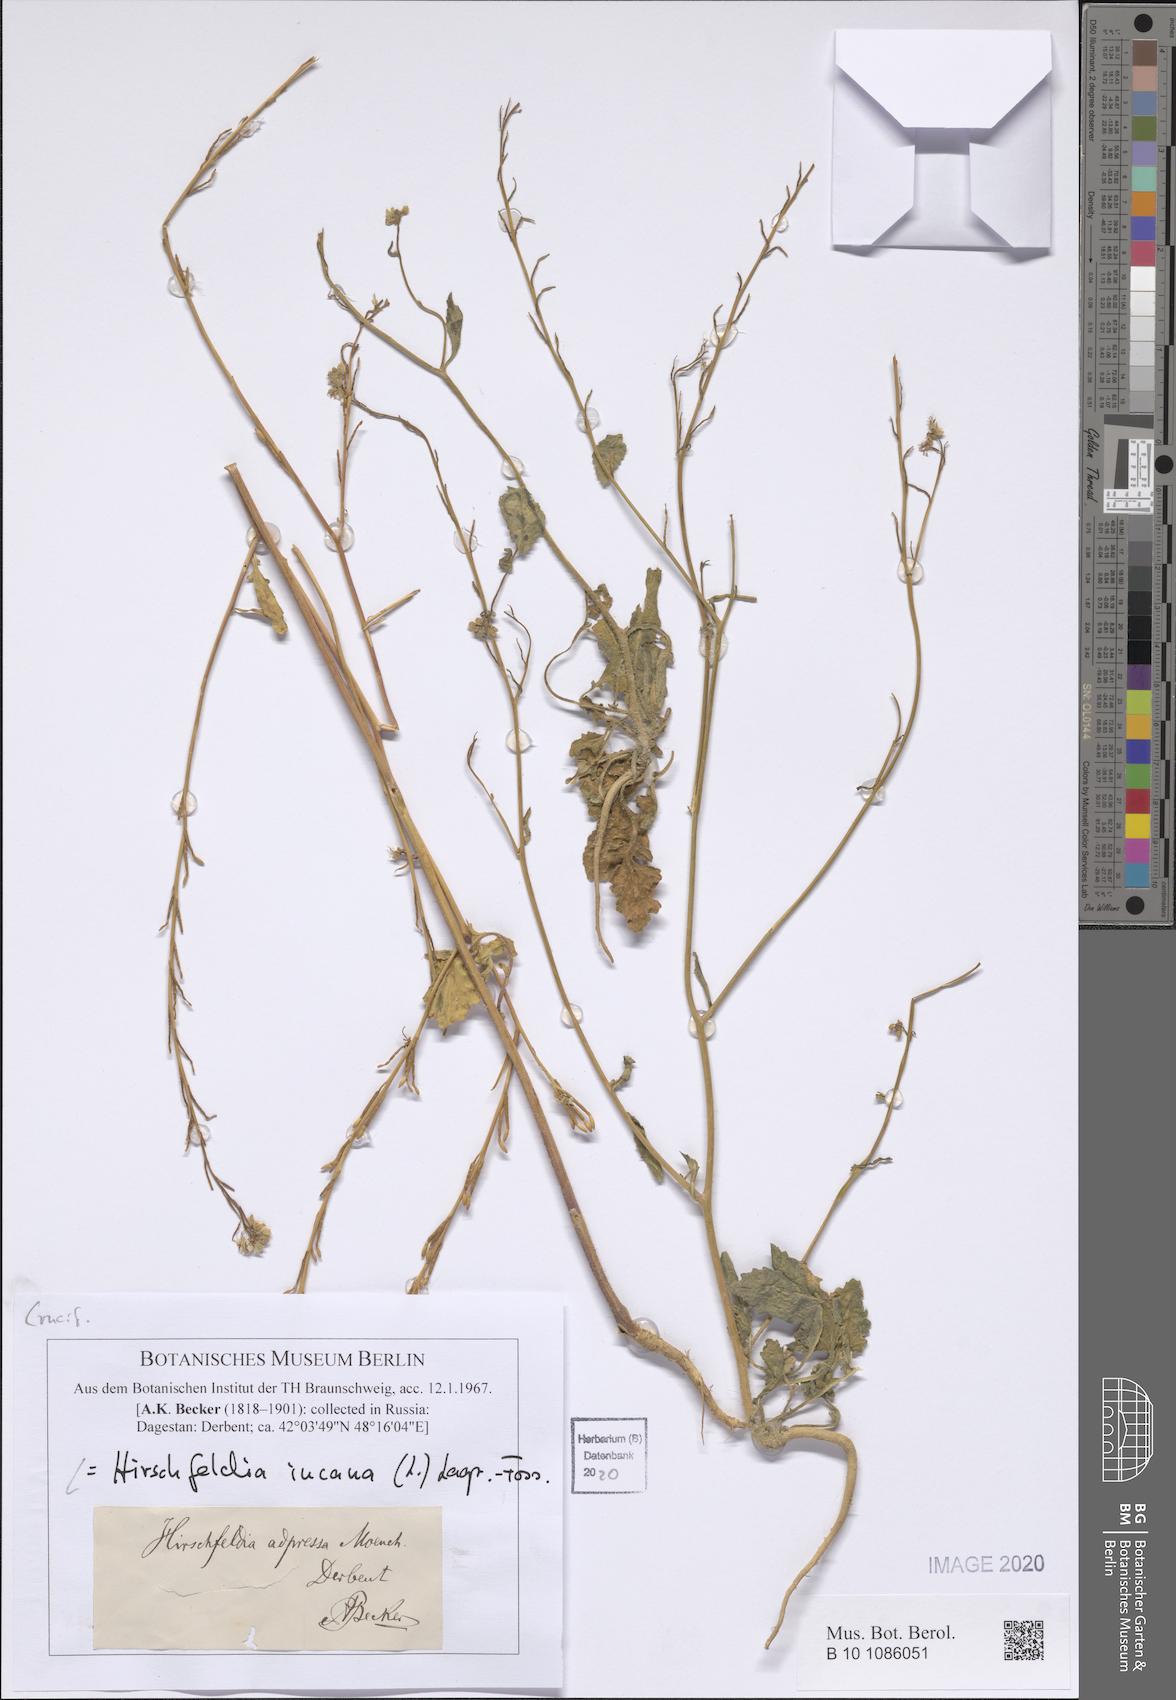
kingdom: Plantae
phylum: Tracheophyta
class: Magnoliopsida
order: Brassicales
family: Brassicaceae
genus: Hirschfeldia
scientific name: Hirschfeldia incana
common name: Hoary mustard
